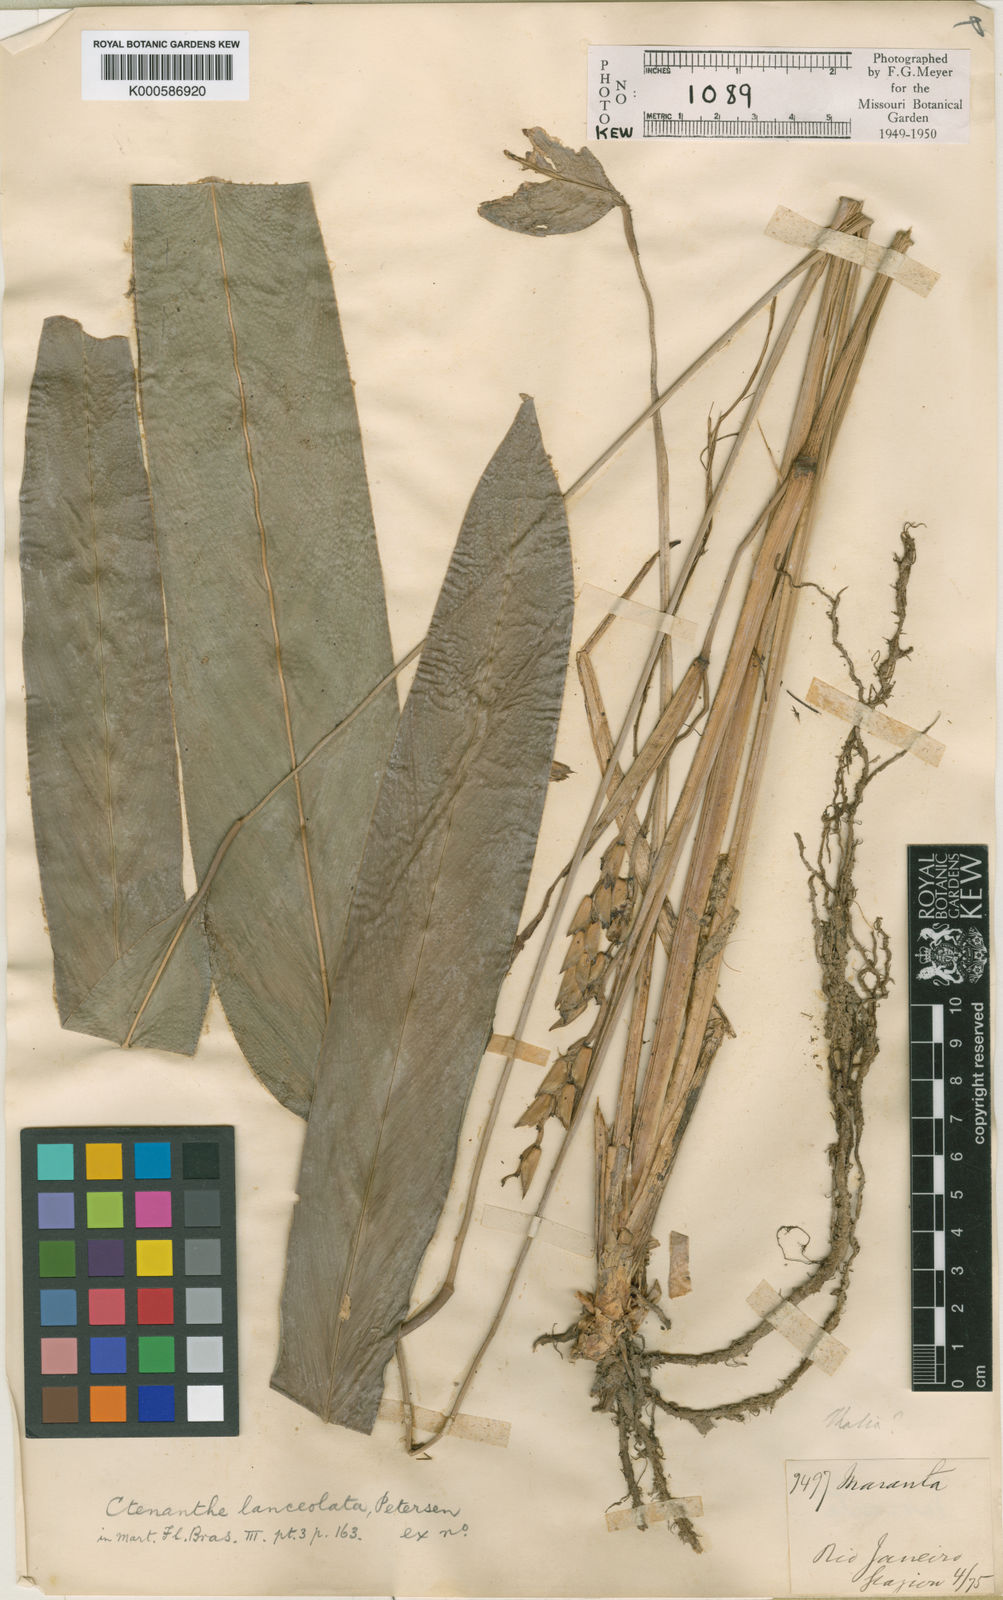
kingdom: Plantae
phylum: Tracheophyta
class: Liliopsida
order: Zingiberales
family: Marantaceae
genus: Ctenanthe
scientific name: Ctenanthe lanceolata
